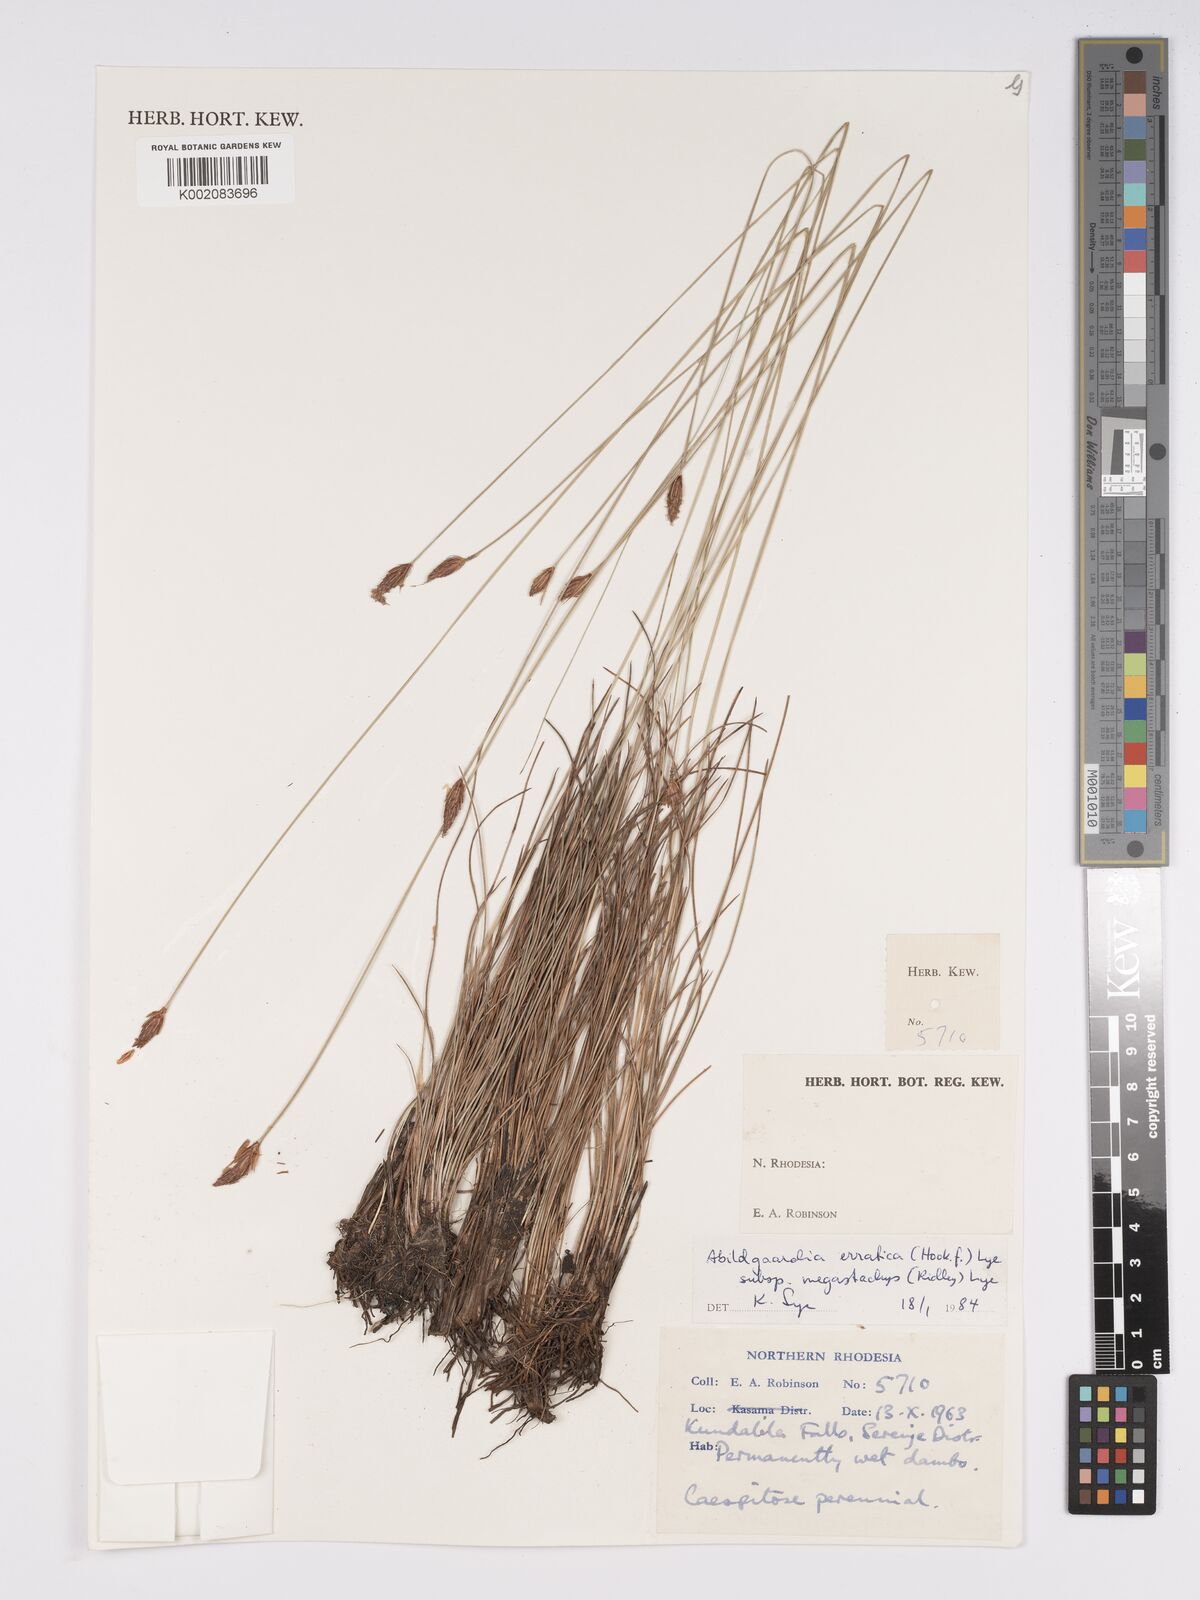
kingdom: Plantae
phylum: Tracheophyta
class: Liliopsida
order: Poales
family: Cyperaceae
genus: Bulbostylis
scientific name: Bulbostylis schoenoides
